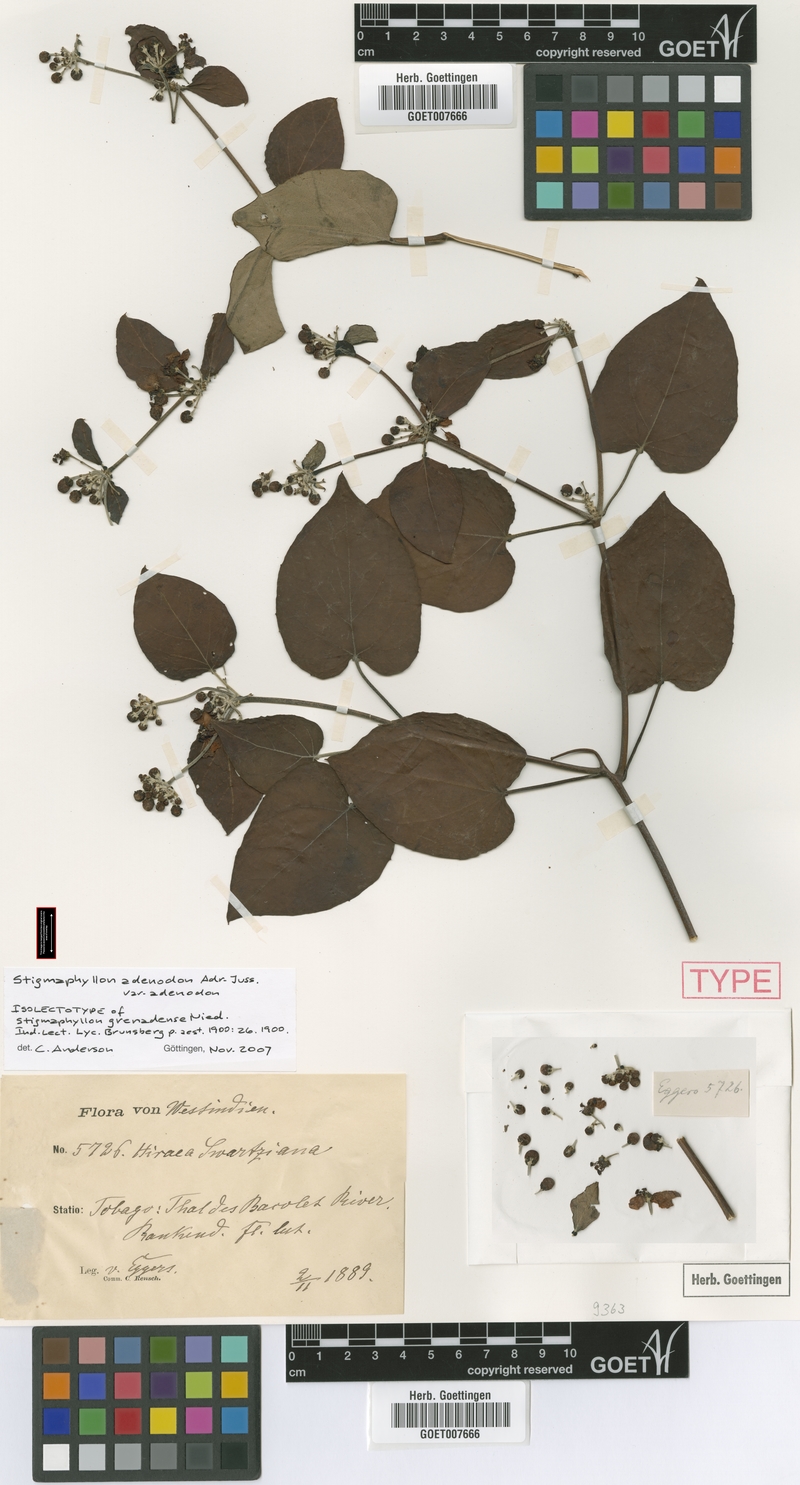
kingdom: Plantae
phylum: Tracheophyta
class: Magnoliopsida
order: Malpighiales
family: Malpighiaceae
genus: Stigmaphyllon
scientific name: Stigmaphyllon adenodon
